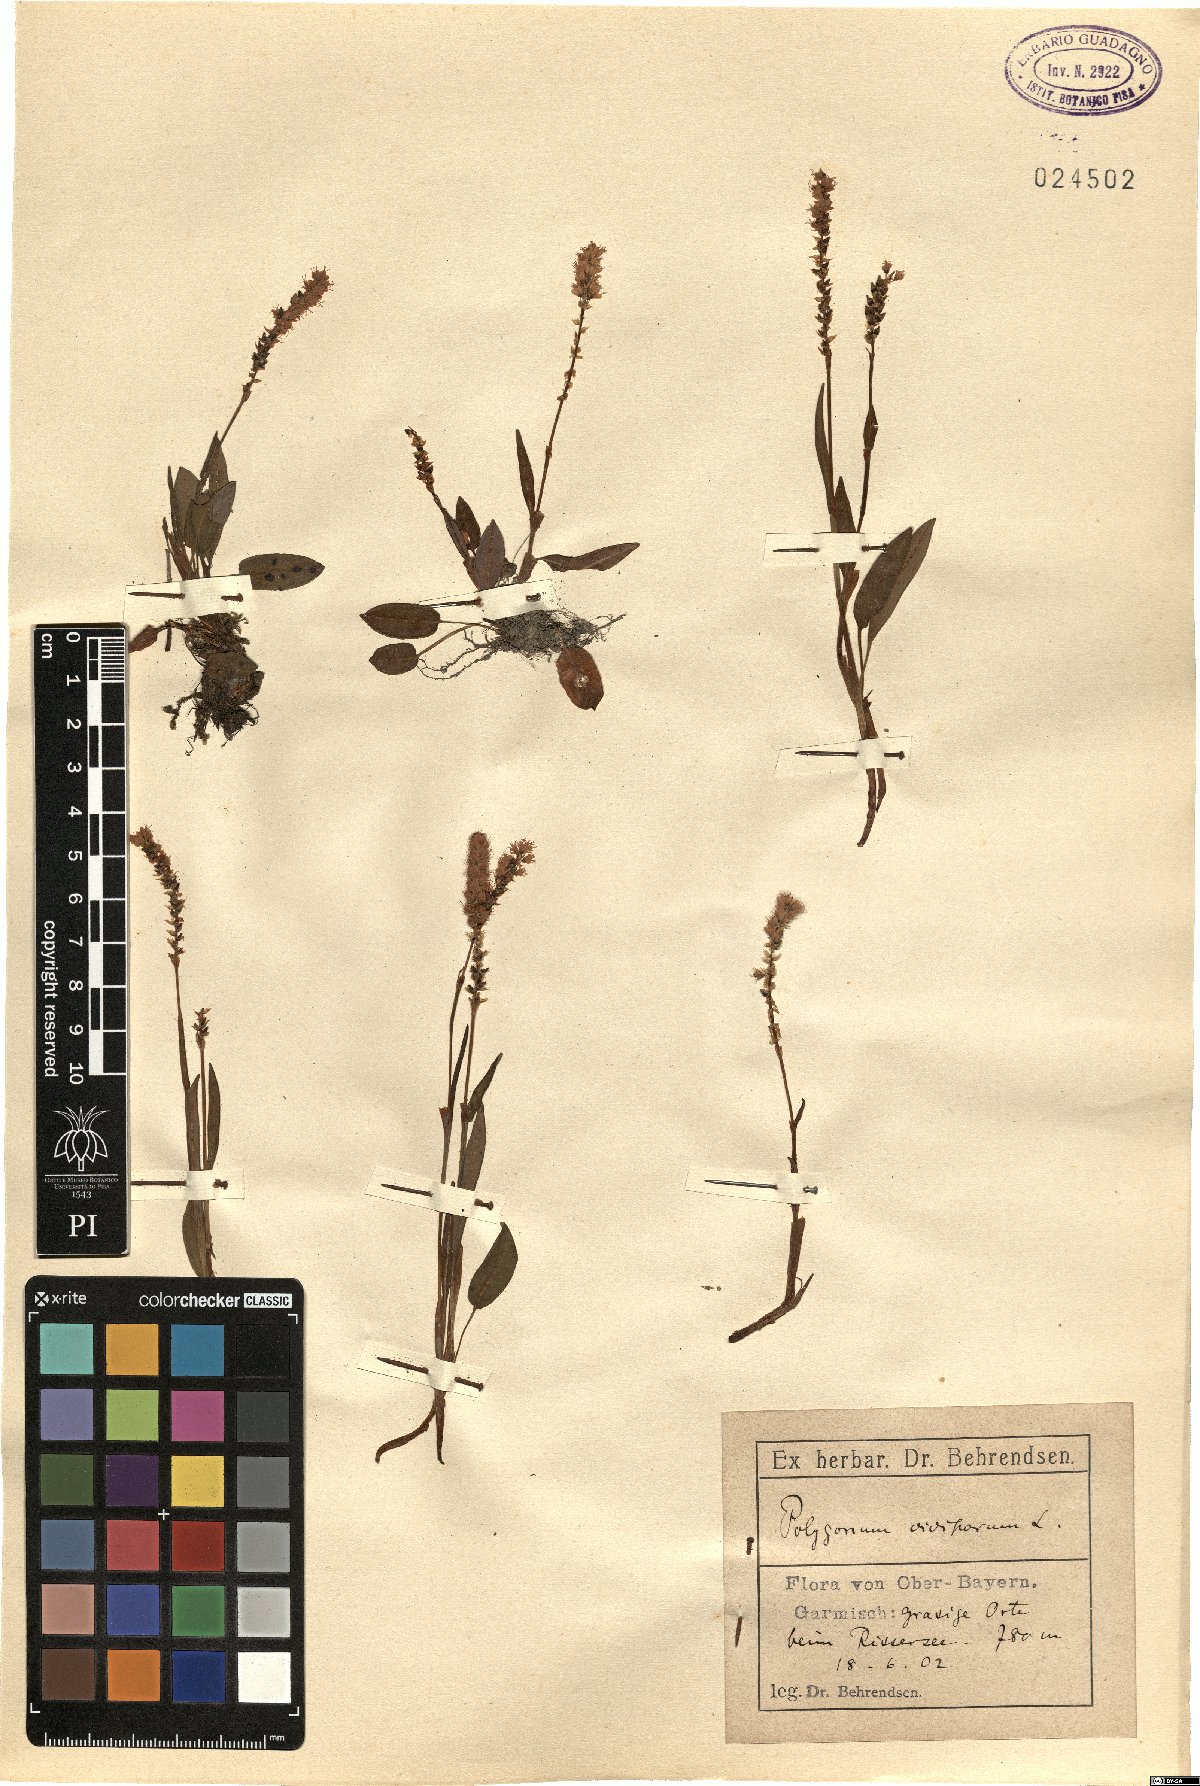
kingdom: Plantae
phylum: Tracheophyta
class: Magnoliopsida
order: Caryophyllales
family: Polygonaceae
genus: Bistorta
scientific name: Bistorta vivipara
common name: Alpine bistort
